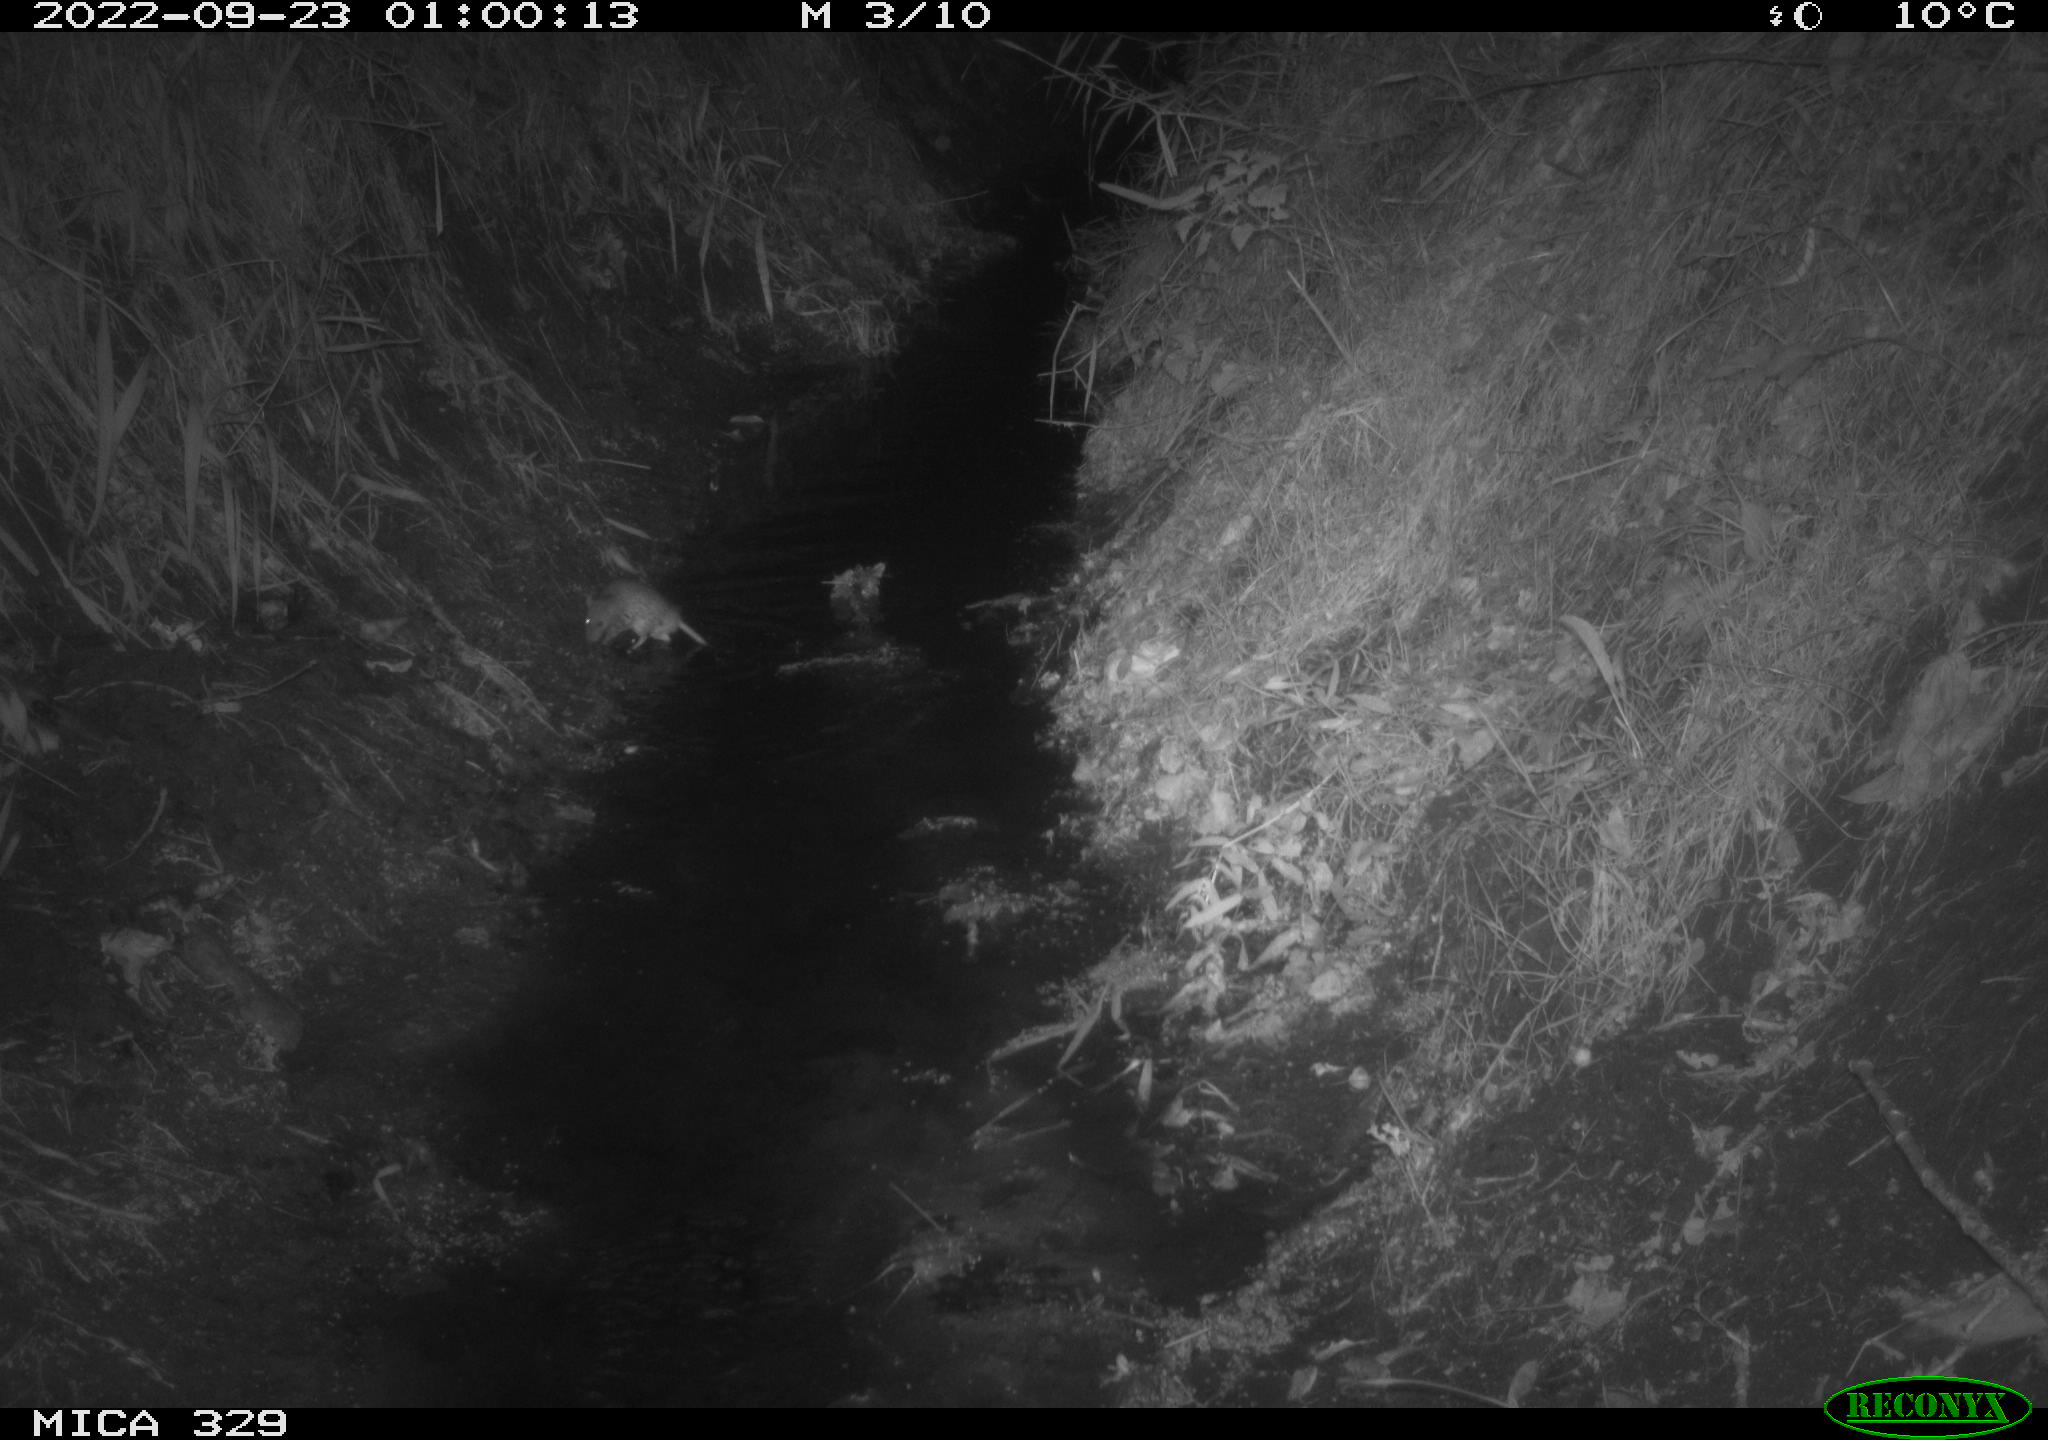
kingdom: Animalia
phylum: Chordata
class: Mammalia
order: Rodentia
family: Muridae
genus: Rattus
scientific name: Rattus norvegicus
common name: Brown rat
